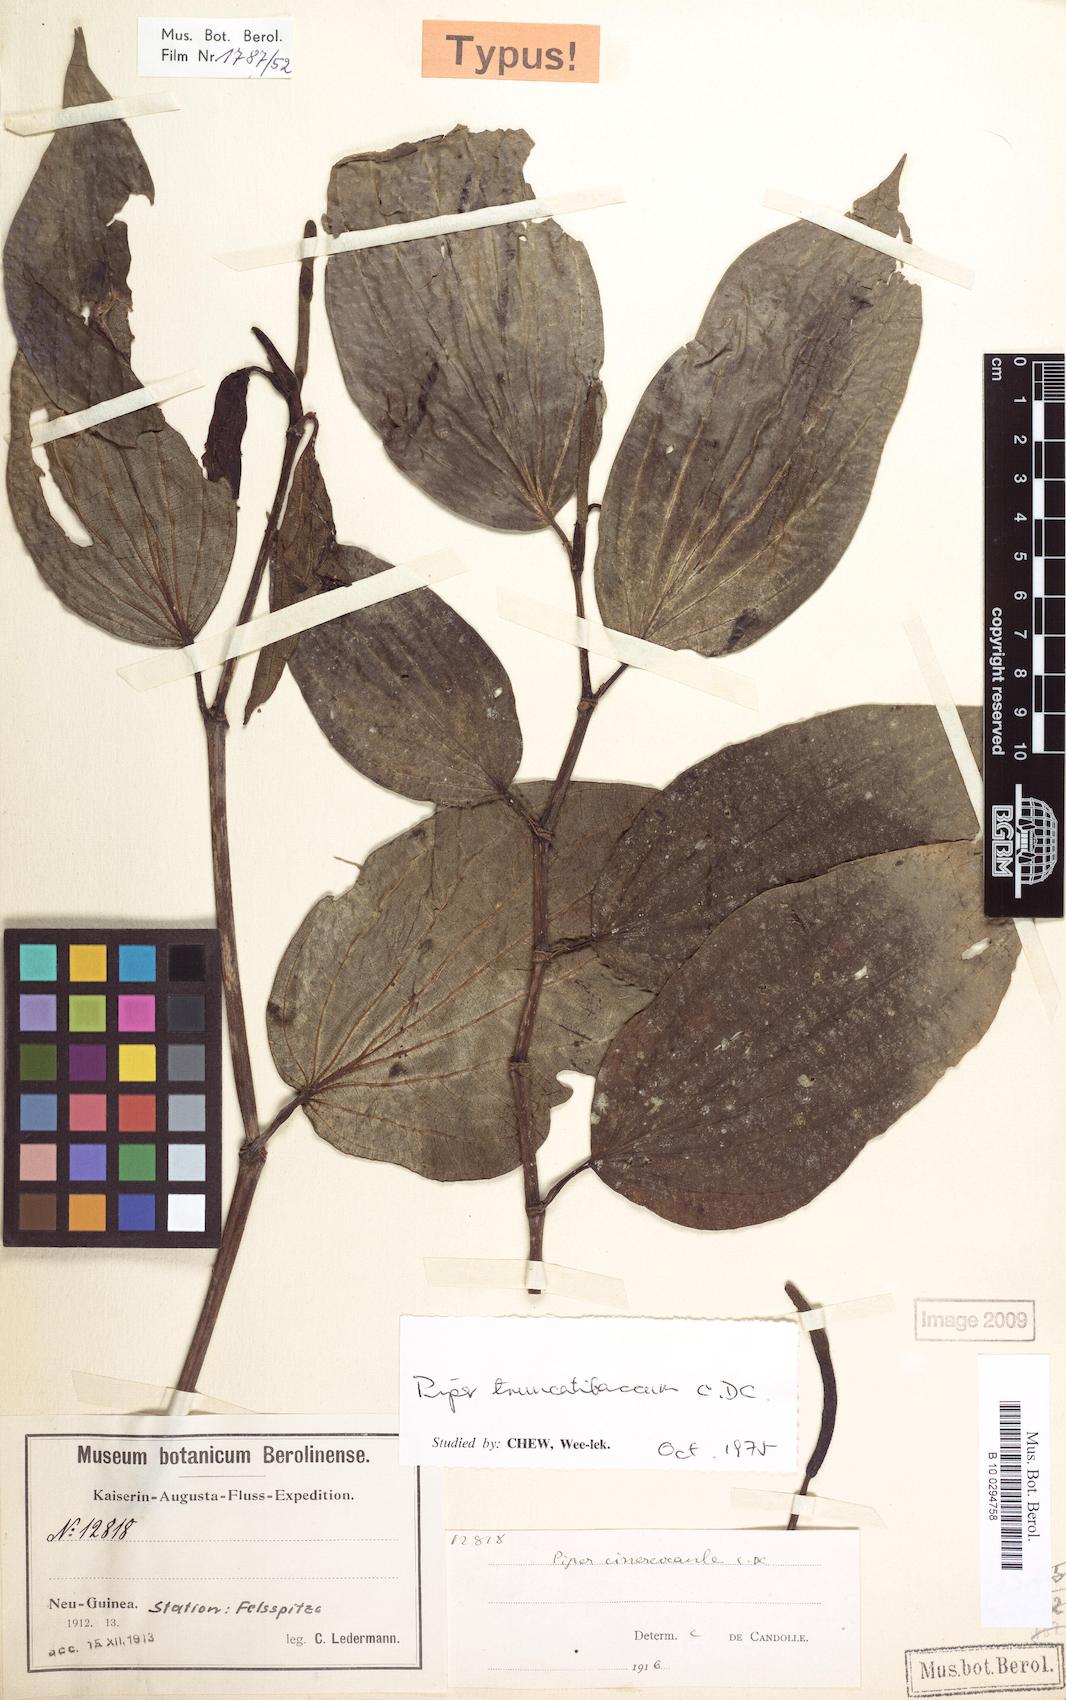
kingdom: Plantae
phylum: Tracheophyta
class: Magnoliopsida
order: Piperales
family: Piperaceae
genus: Piper
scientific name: Piper truncatibaccum
